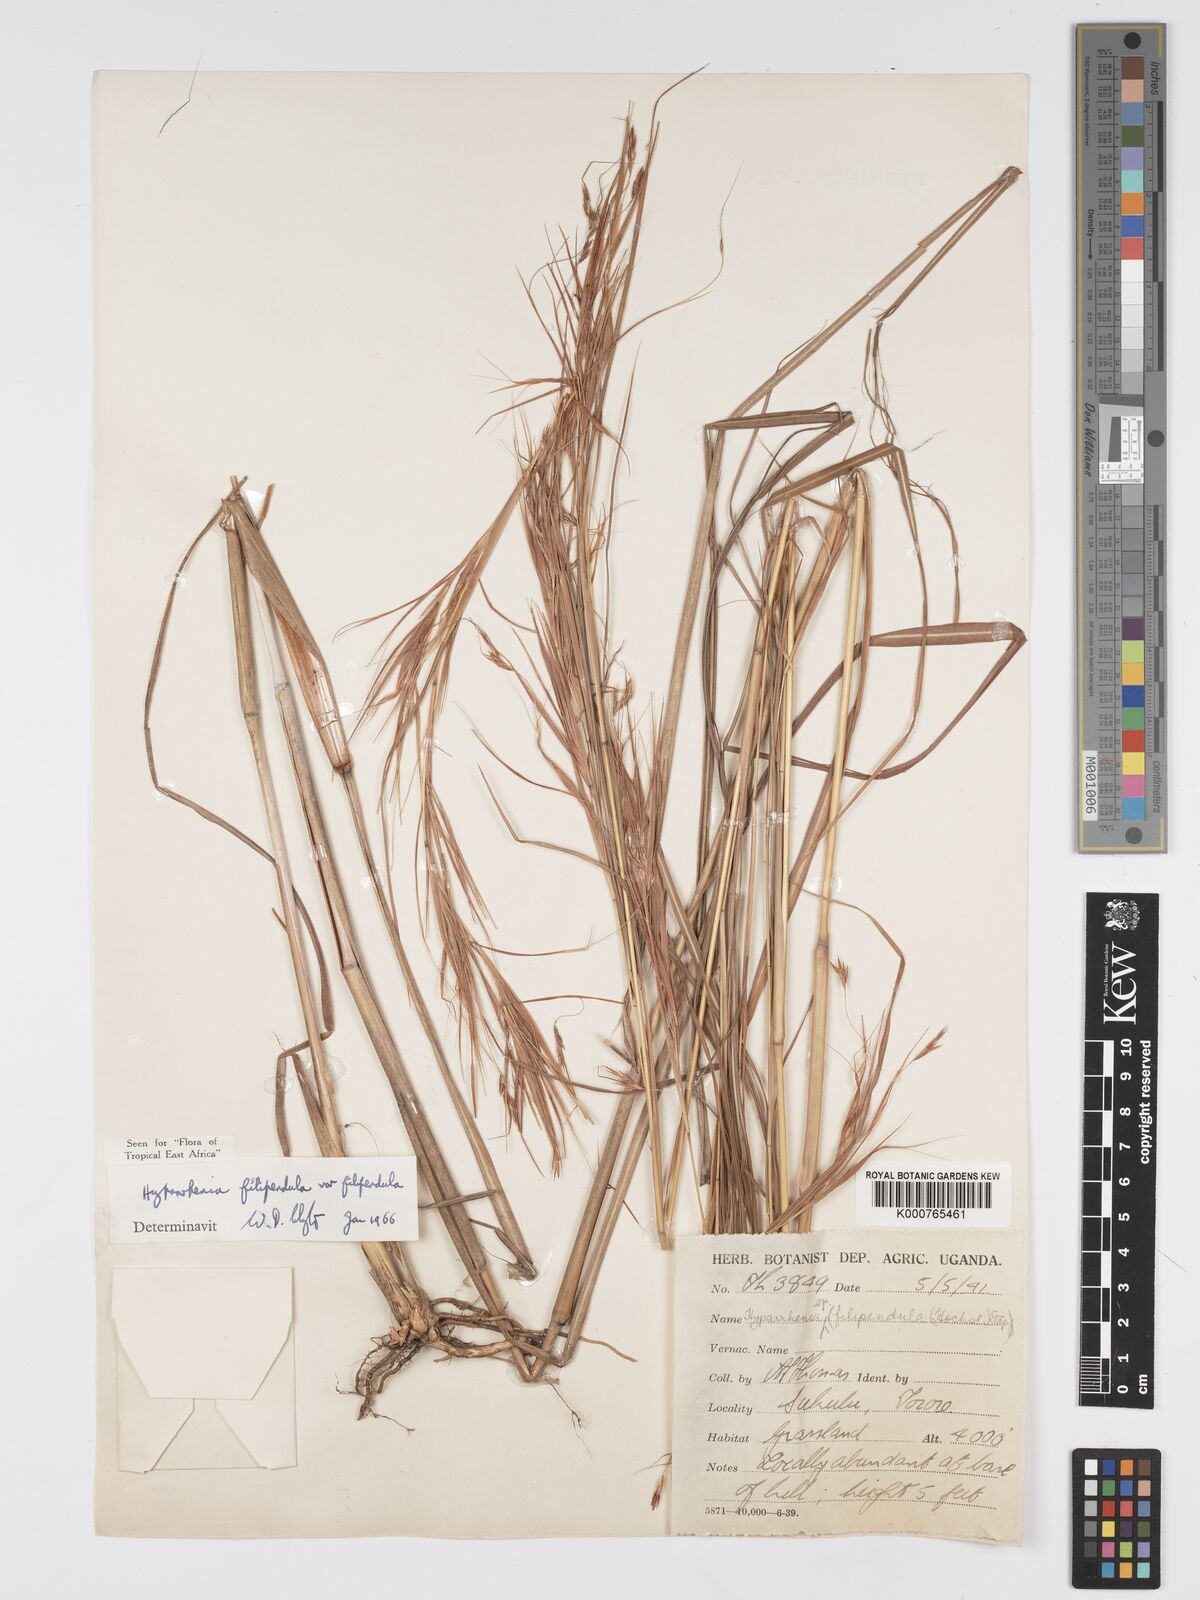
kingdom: Plantae
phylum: Tracheophyta
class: Liliopsida
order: Poales
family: Poaceae
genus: Hyparrhenia
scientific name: Hyparrhenia filipendula
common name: Tambookie grass
